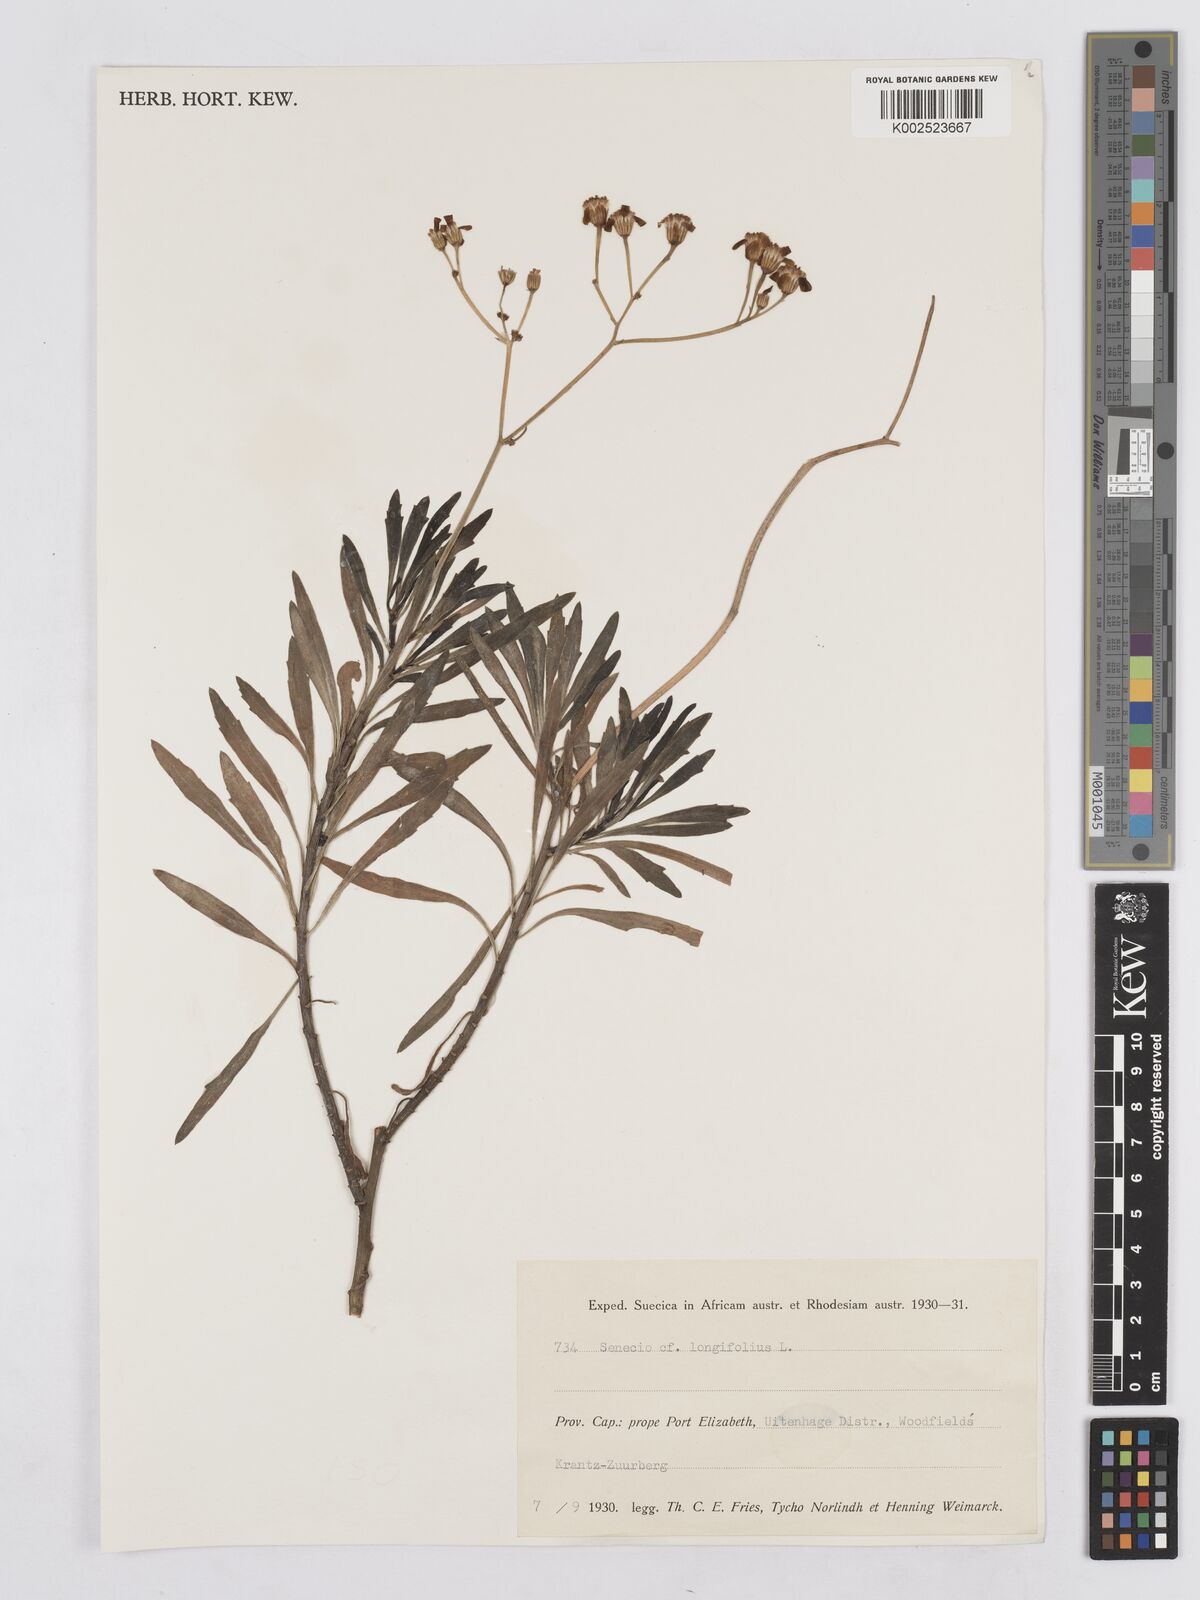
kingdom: Plantae
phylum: Tracheophyta
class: Magnoliopsida
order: Asterales
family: Asteraceae
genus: Senecio
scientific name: Senecio linifolius
